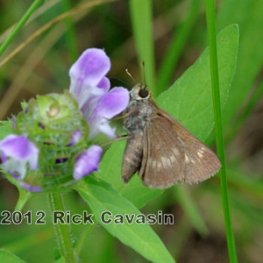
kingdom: Animalia
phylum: Arthropoda
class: Insecta
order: Lepidoptera
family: Hesperiidae
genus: Polites
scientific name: Polites egeremet
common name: Northern Broken-Dash
